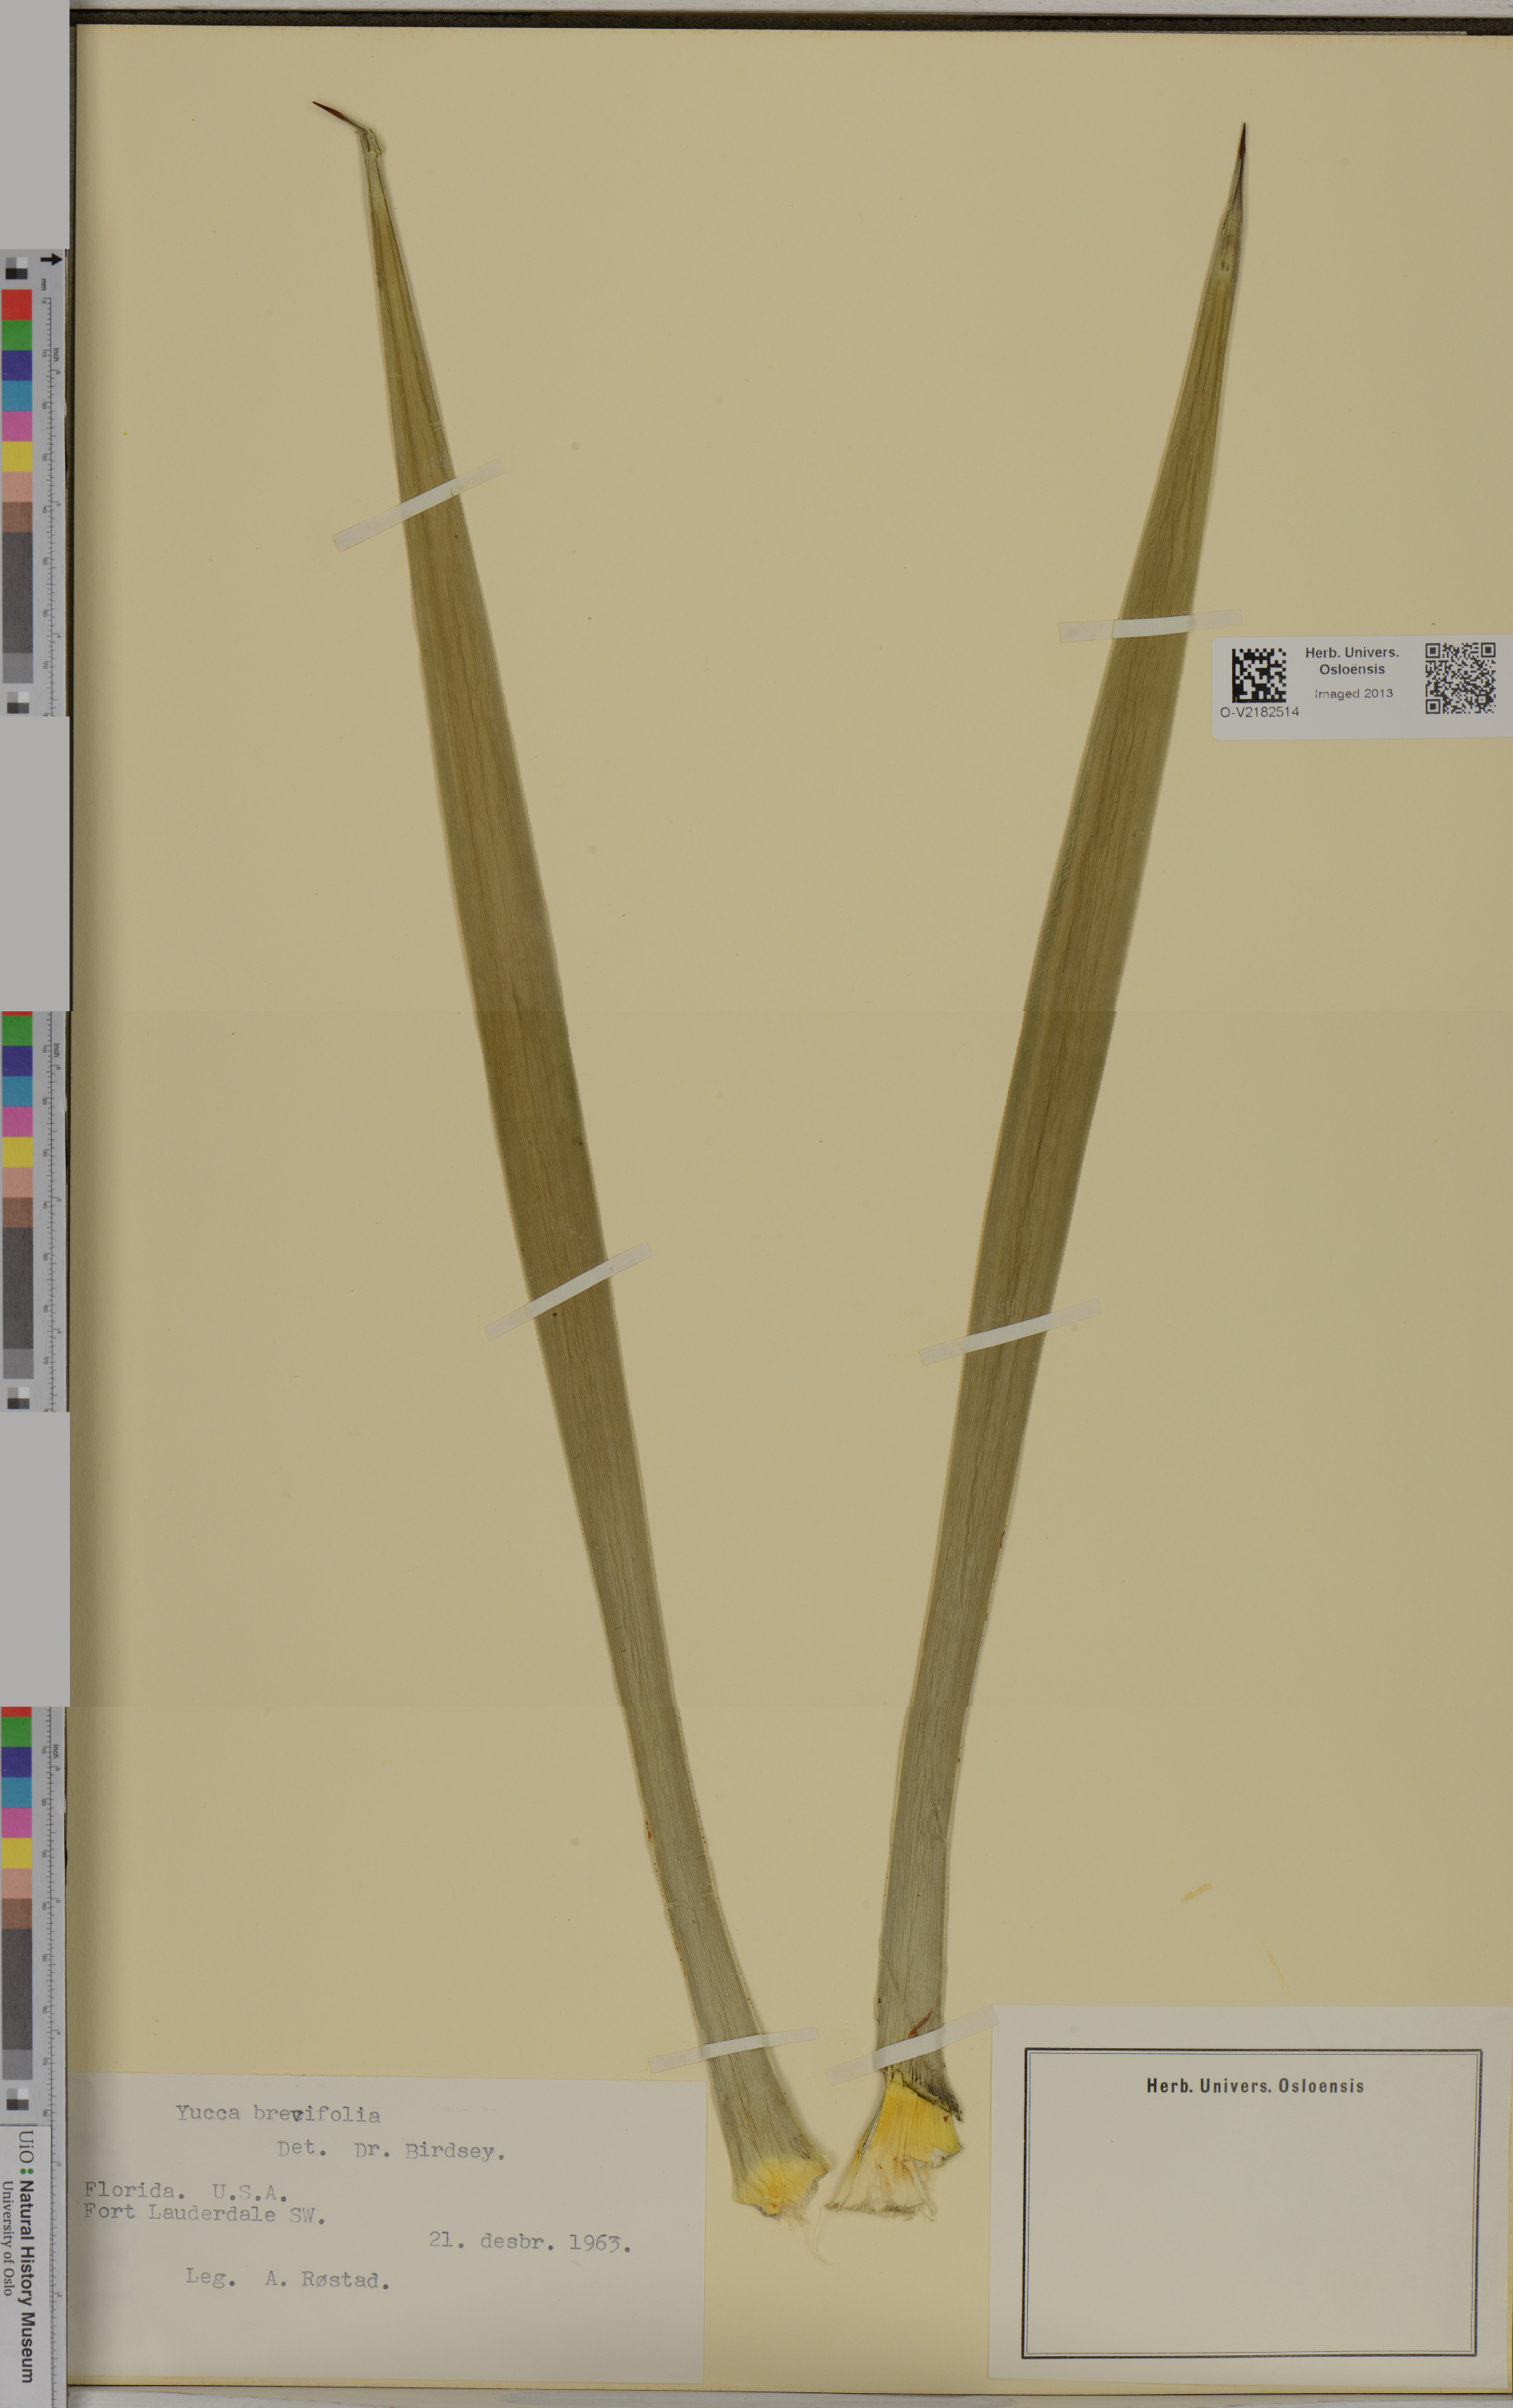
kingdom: Plantae
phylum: Tracheophyta
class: Liliopsida
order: Asparagales
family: Asparagaceae
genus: Yucca
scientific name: Yucca brevifolia
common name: Joshua tree
